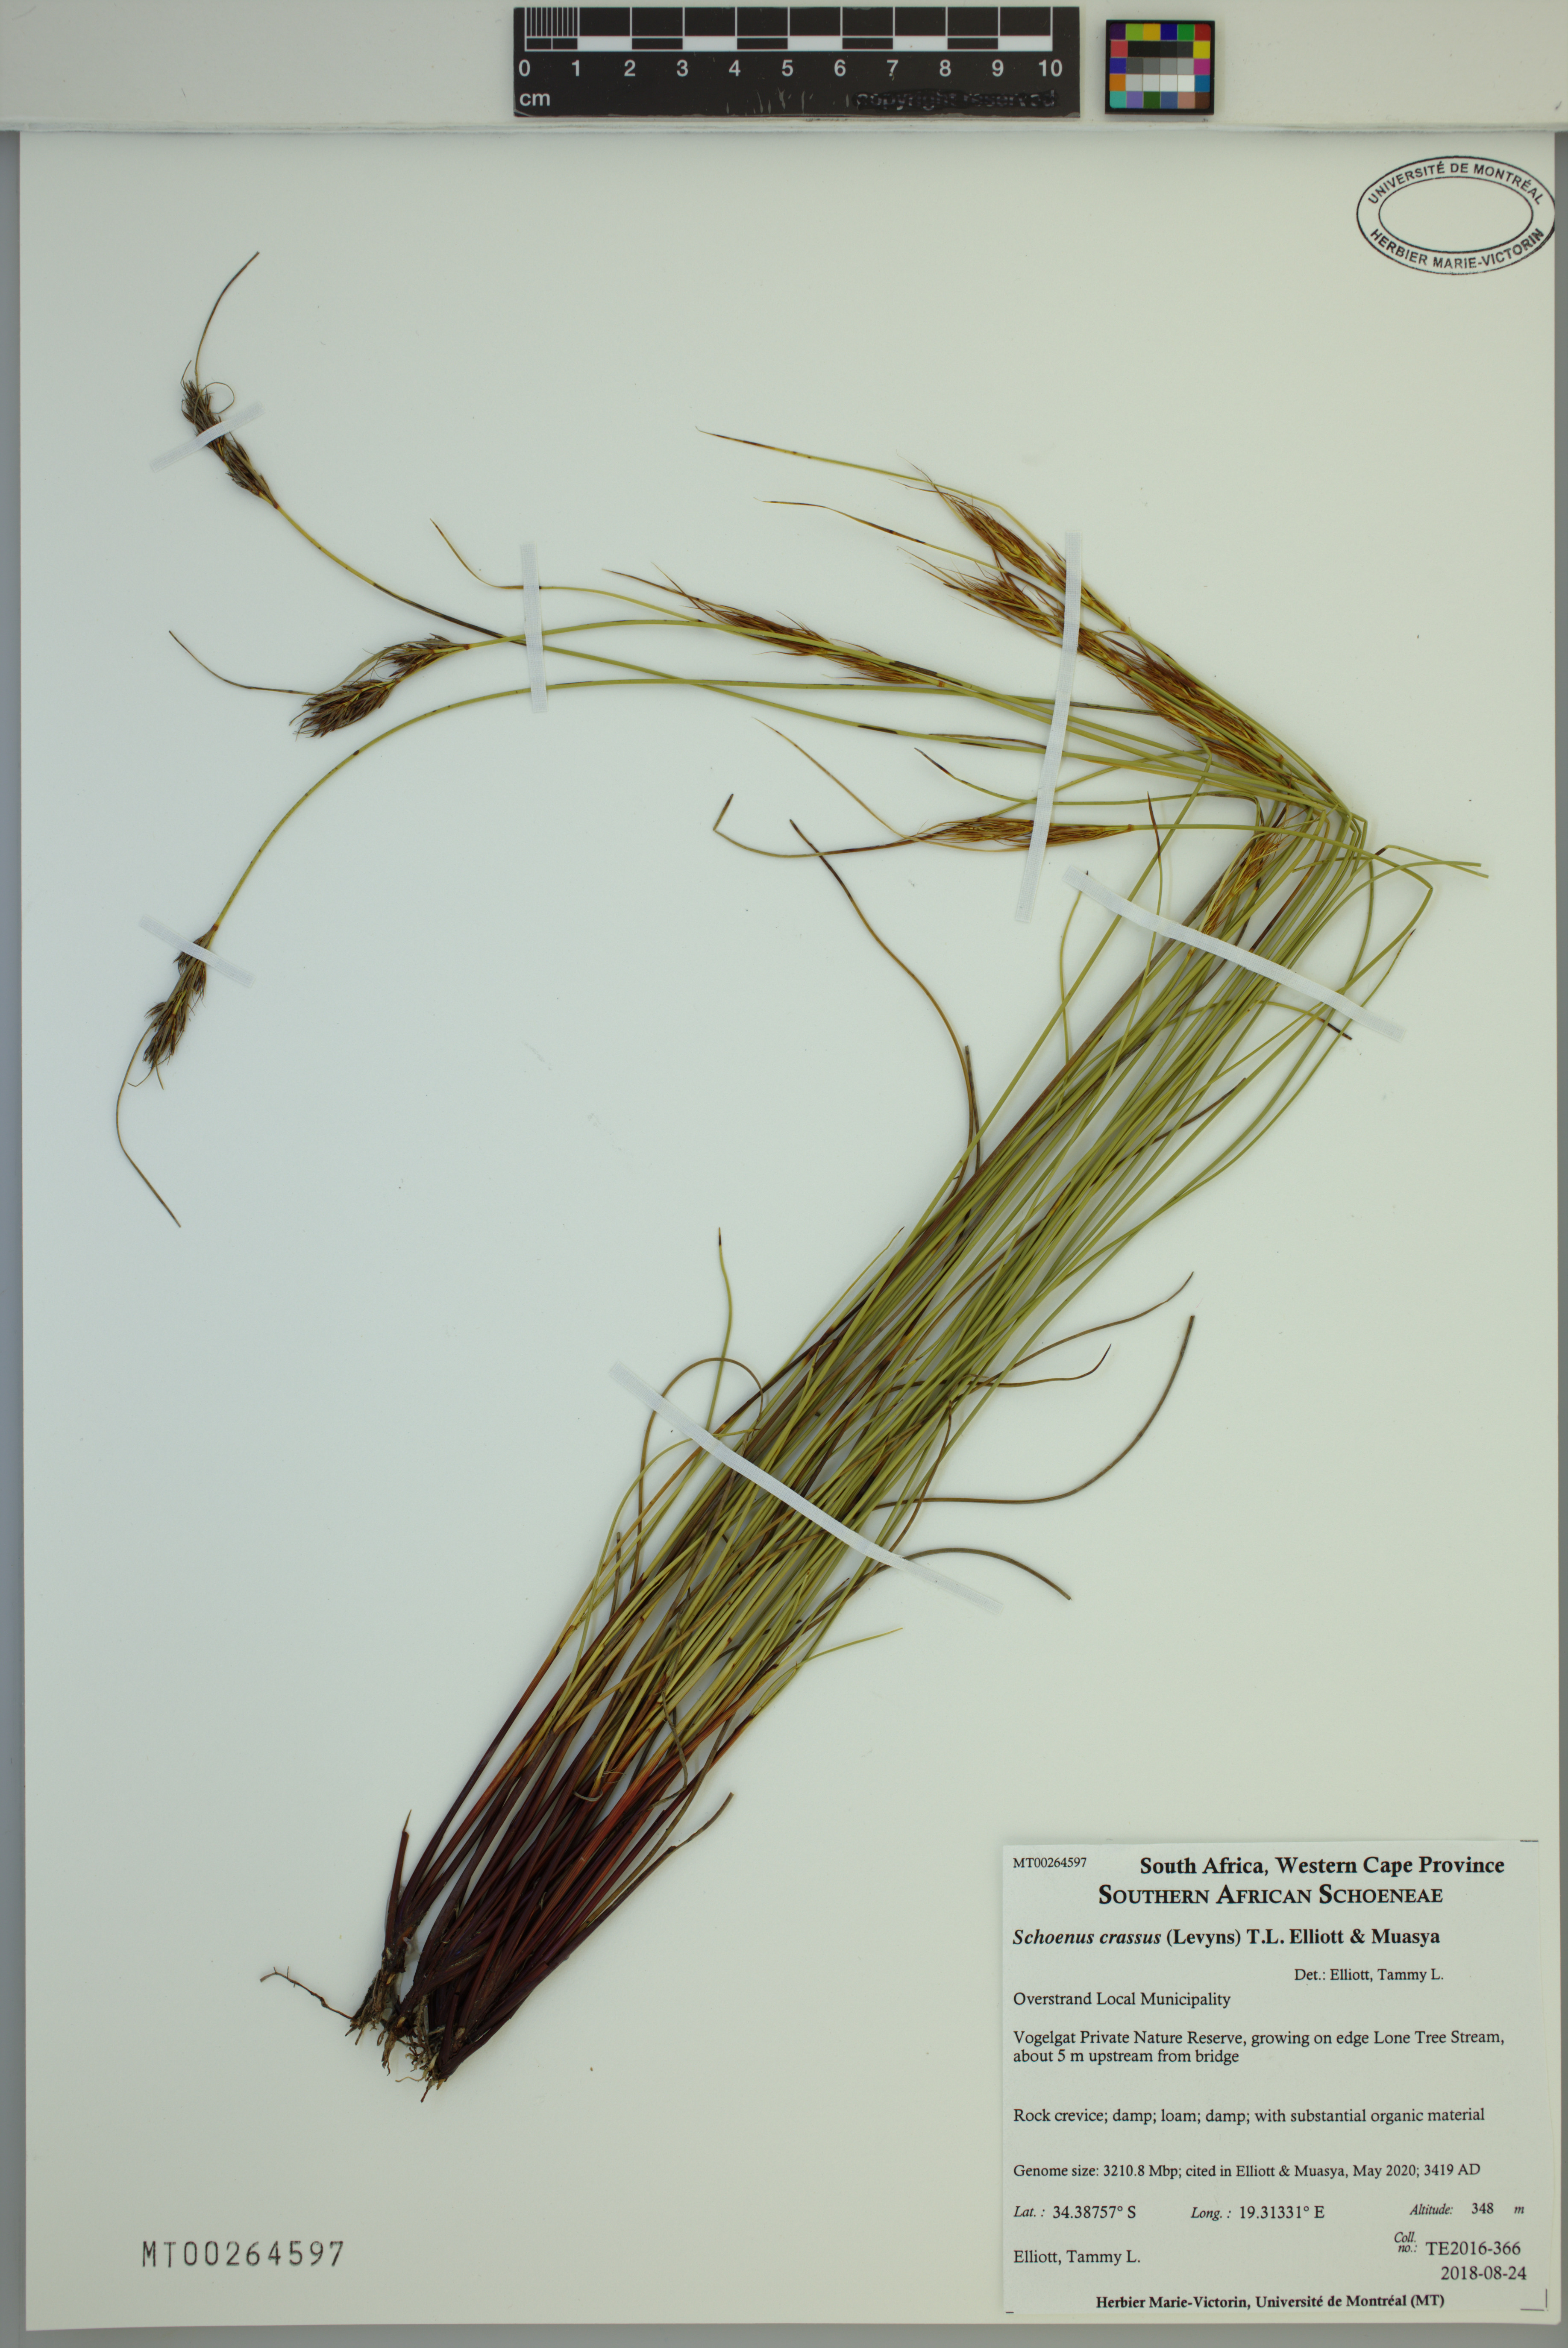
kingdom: Plantae
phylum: Tracheophyta
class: Liliopsida
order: Poales
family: Cyperaceae
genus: Schoenus
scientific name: Schoenus crassus
